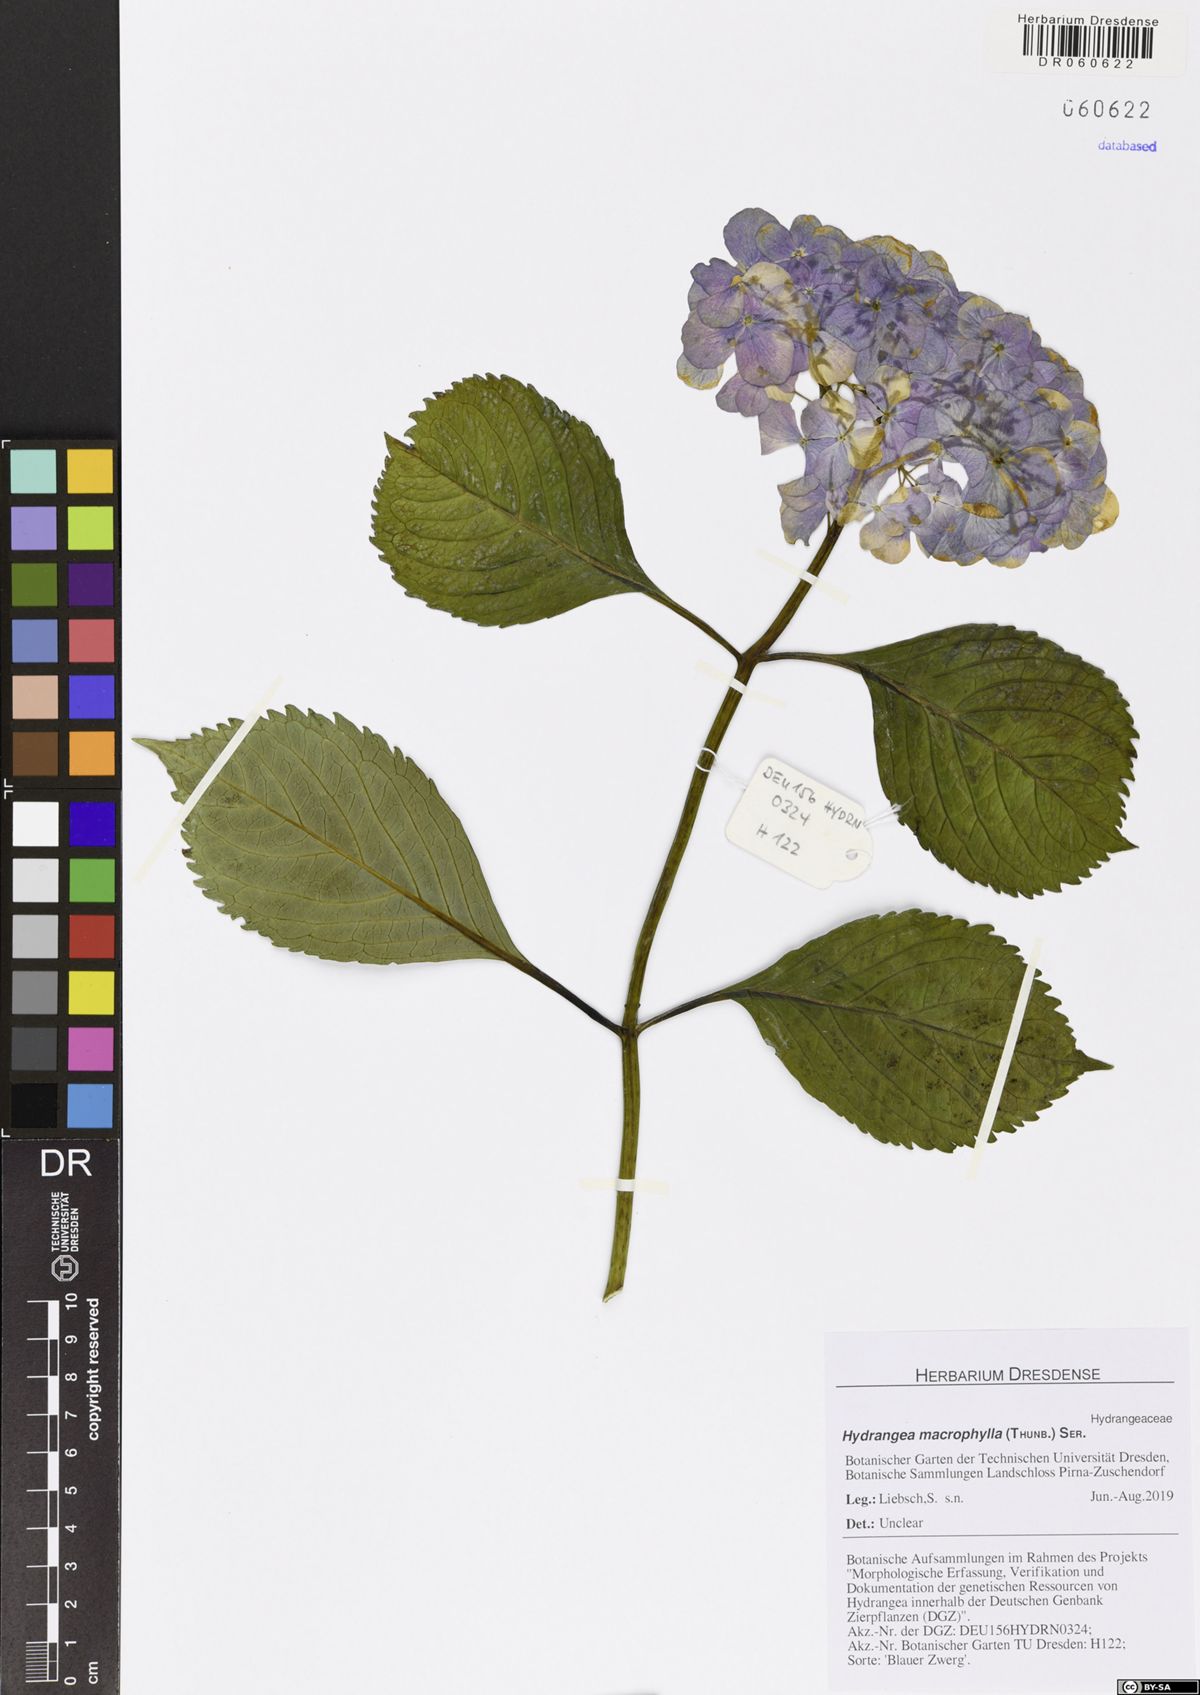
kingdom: Plantae
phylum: Tracheophyta
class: Magnoliopsida
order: Cornales
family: Hydrangeaceae
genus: Hydrangea
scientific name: Hydrangea macrophylla
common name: Hydrangea
